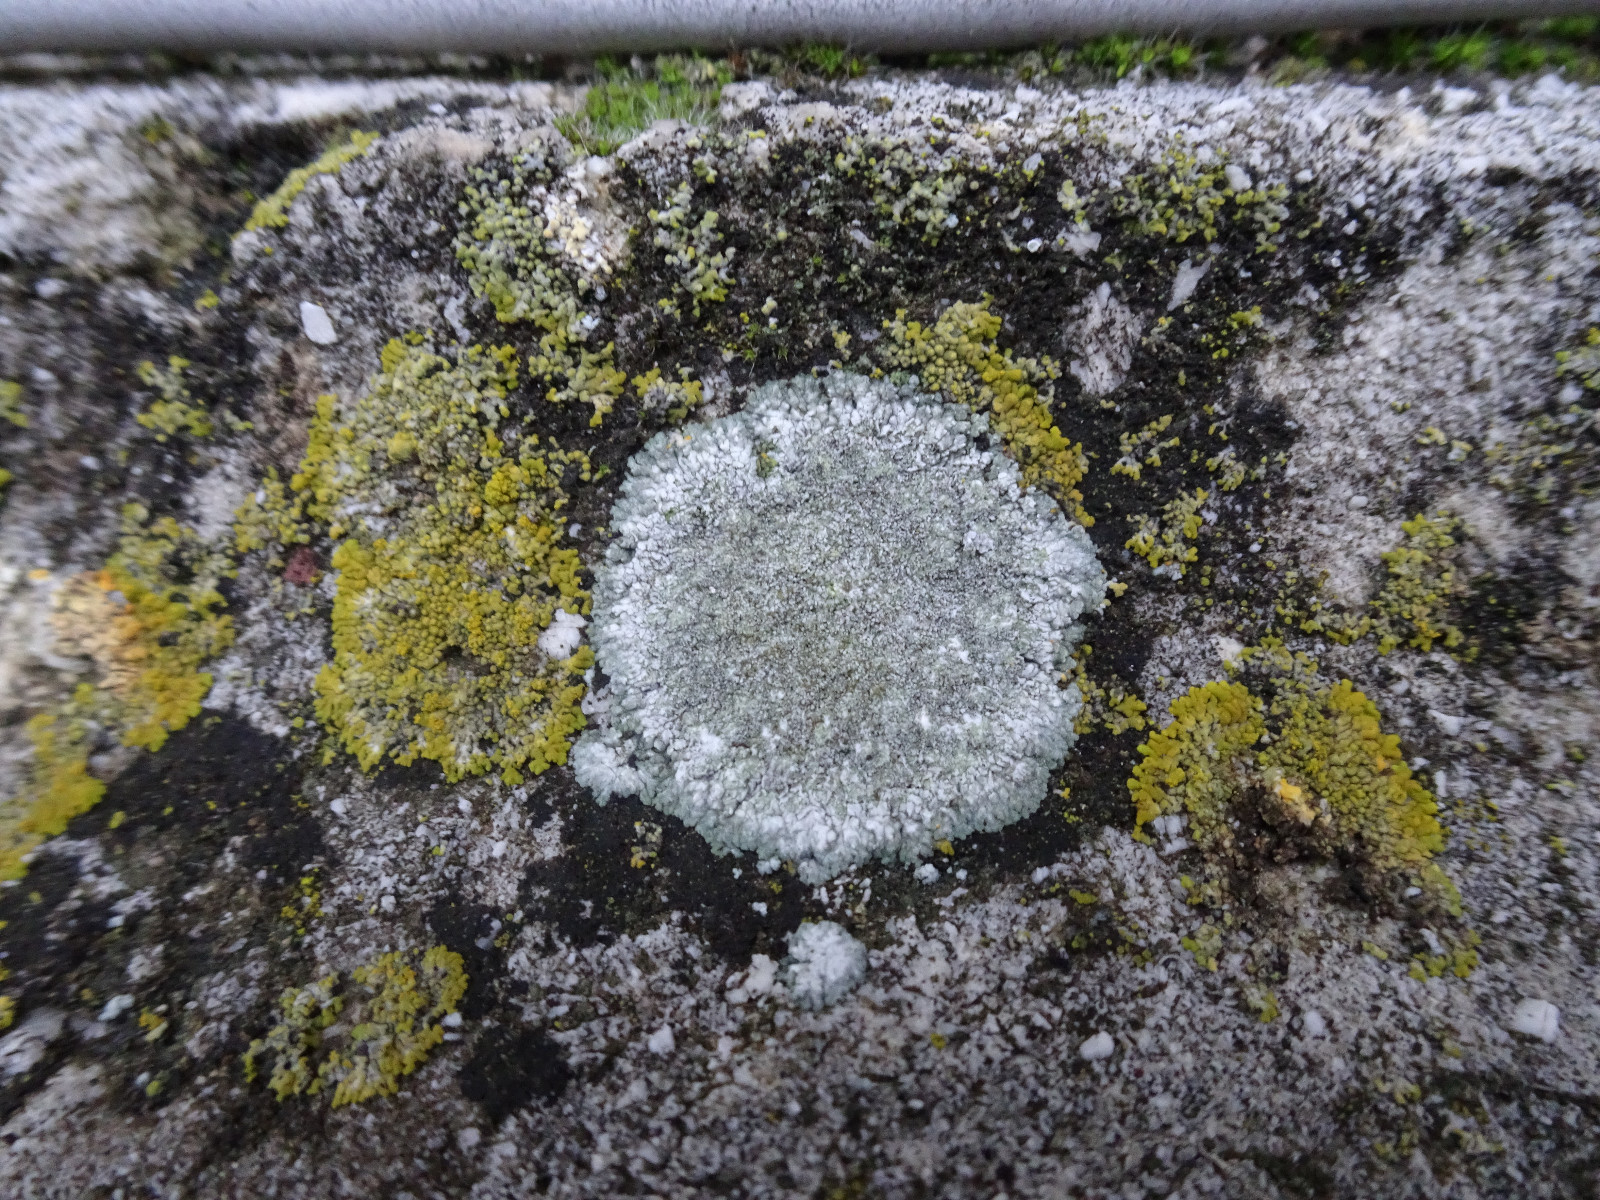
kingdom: Fungi
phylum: Ascomycota
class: Lecanoromycetes
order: Teloschistales
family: Teloschistaceae
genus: Kuettlingeria
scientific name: Kuettlingeria teicholyta
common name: grå orangelav
